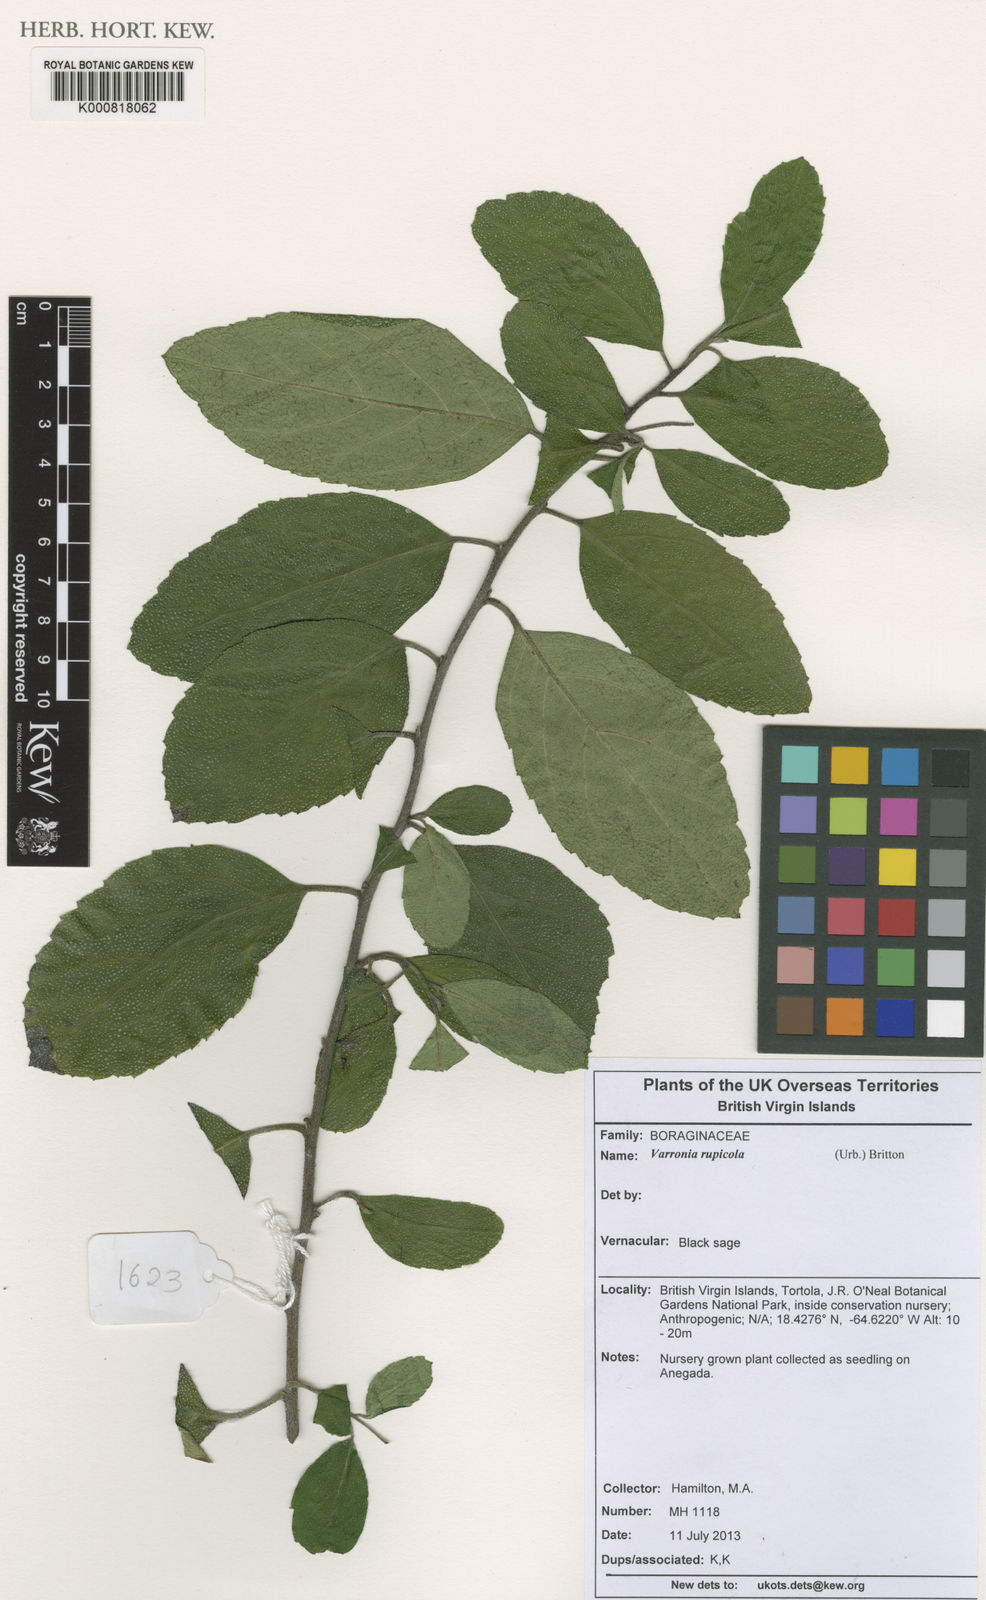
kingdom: Plantae
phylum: Tracheophyta
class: Magnoliopsida
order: Boraginales
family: Cordiaceae
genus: Varronia
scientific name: Varronia rupicola
